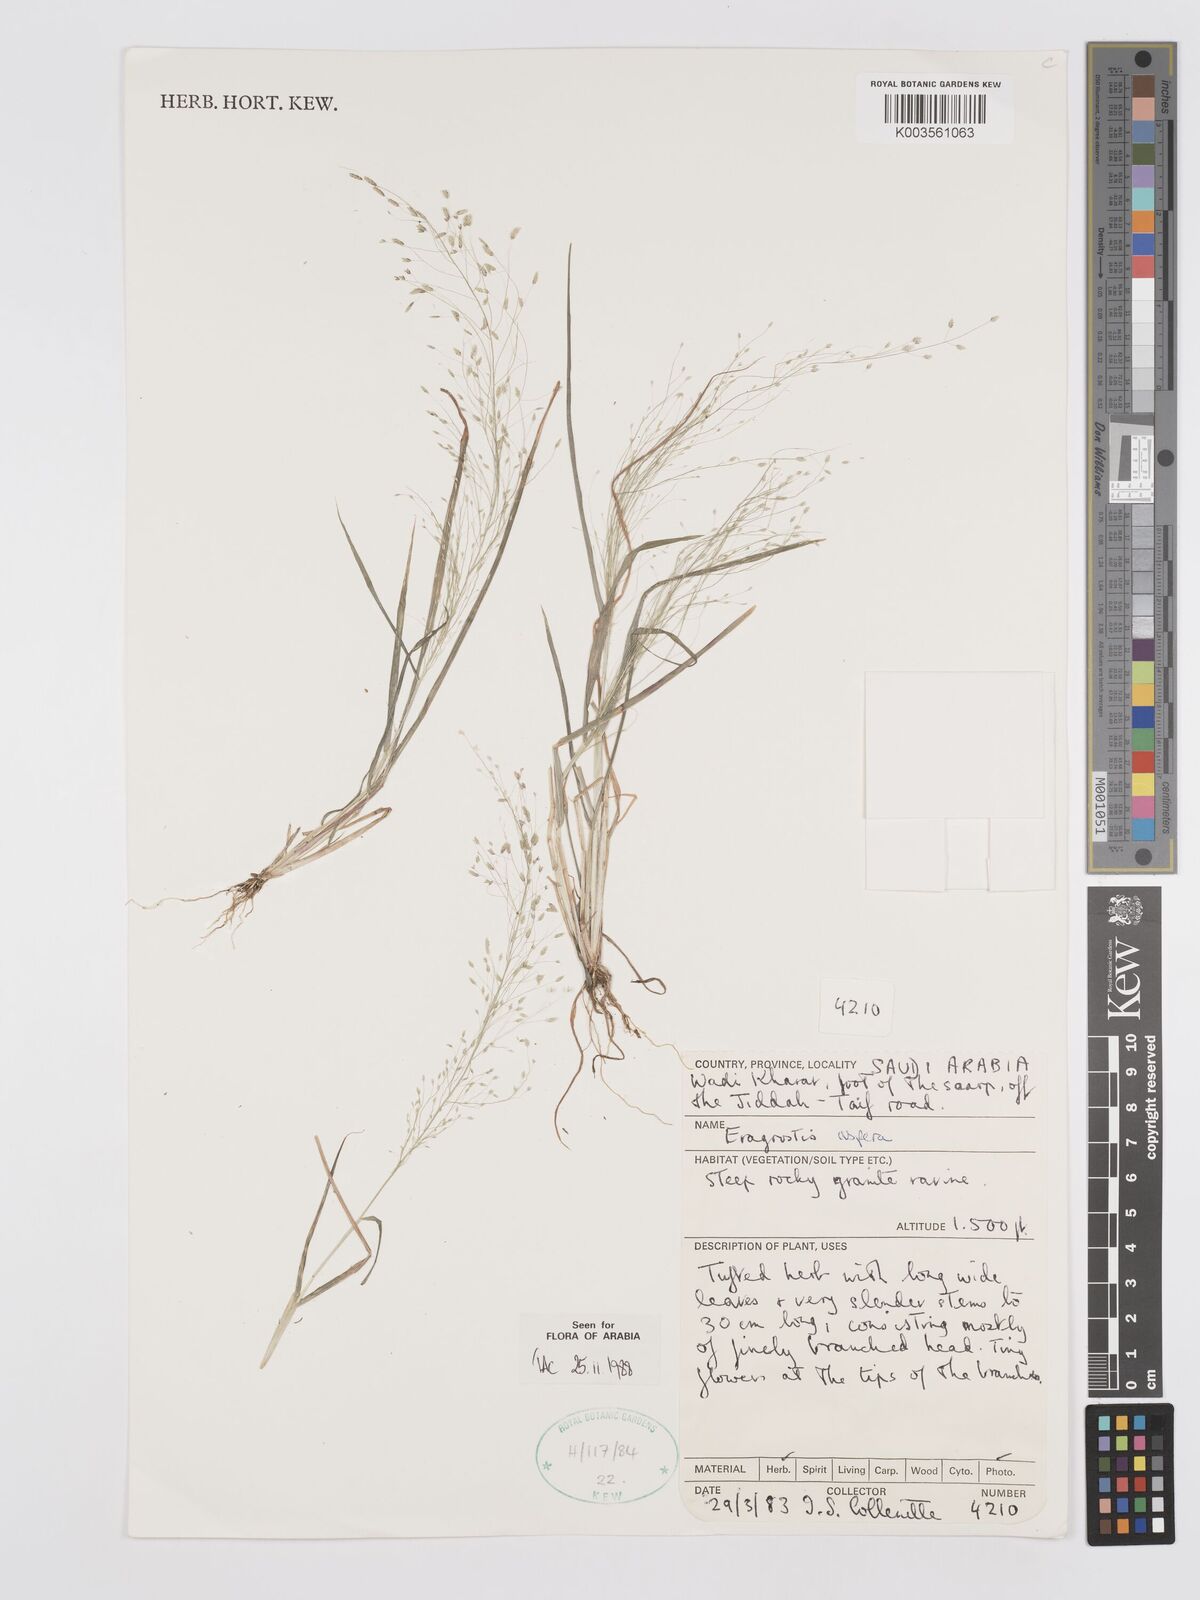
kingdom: Plantae
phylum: Tracheophyta
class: Liliopsida
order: Poales
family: Poaceae
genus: Eragrostis
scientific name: Eragrostis aspera
